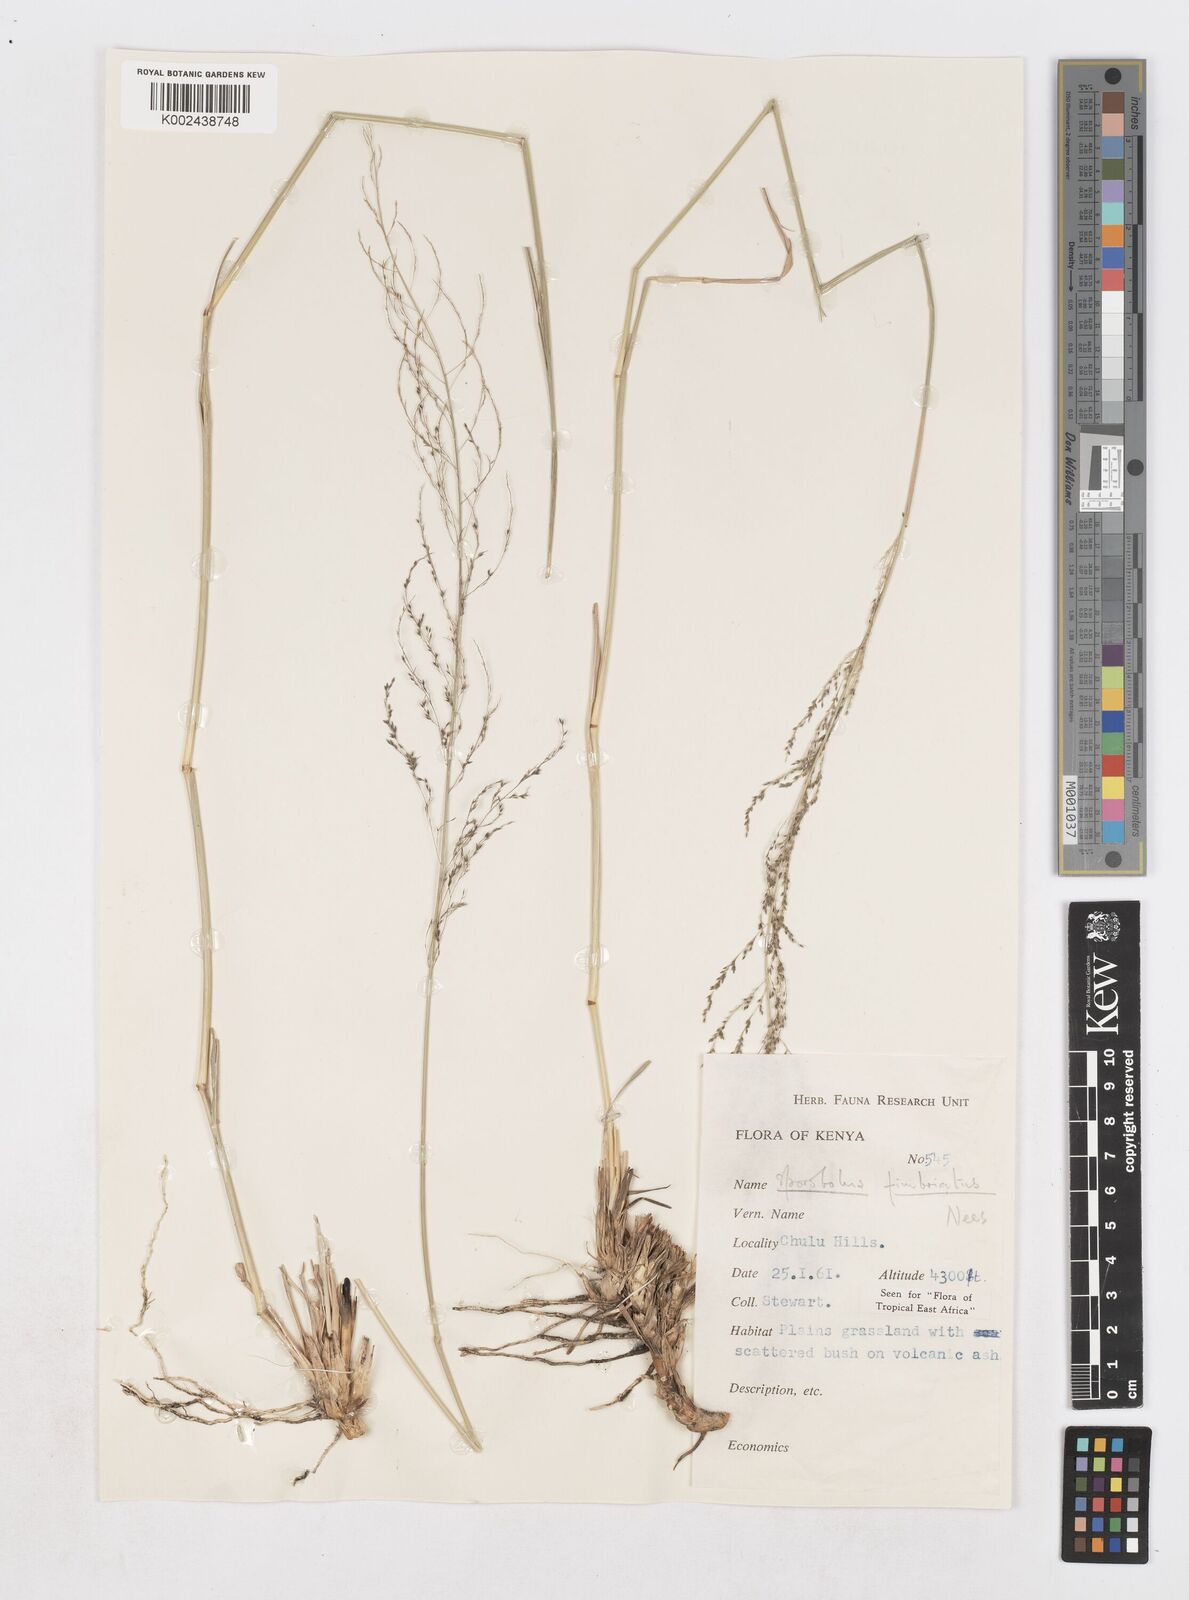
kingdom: Plantae
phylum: Tracheophyta
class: Liliopsida
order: Poales
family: Poaceae
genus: Sporobolus
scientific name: Sporobolus fimbriatus
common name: Fringed dropseed
